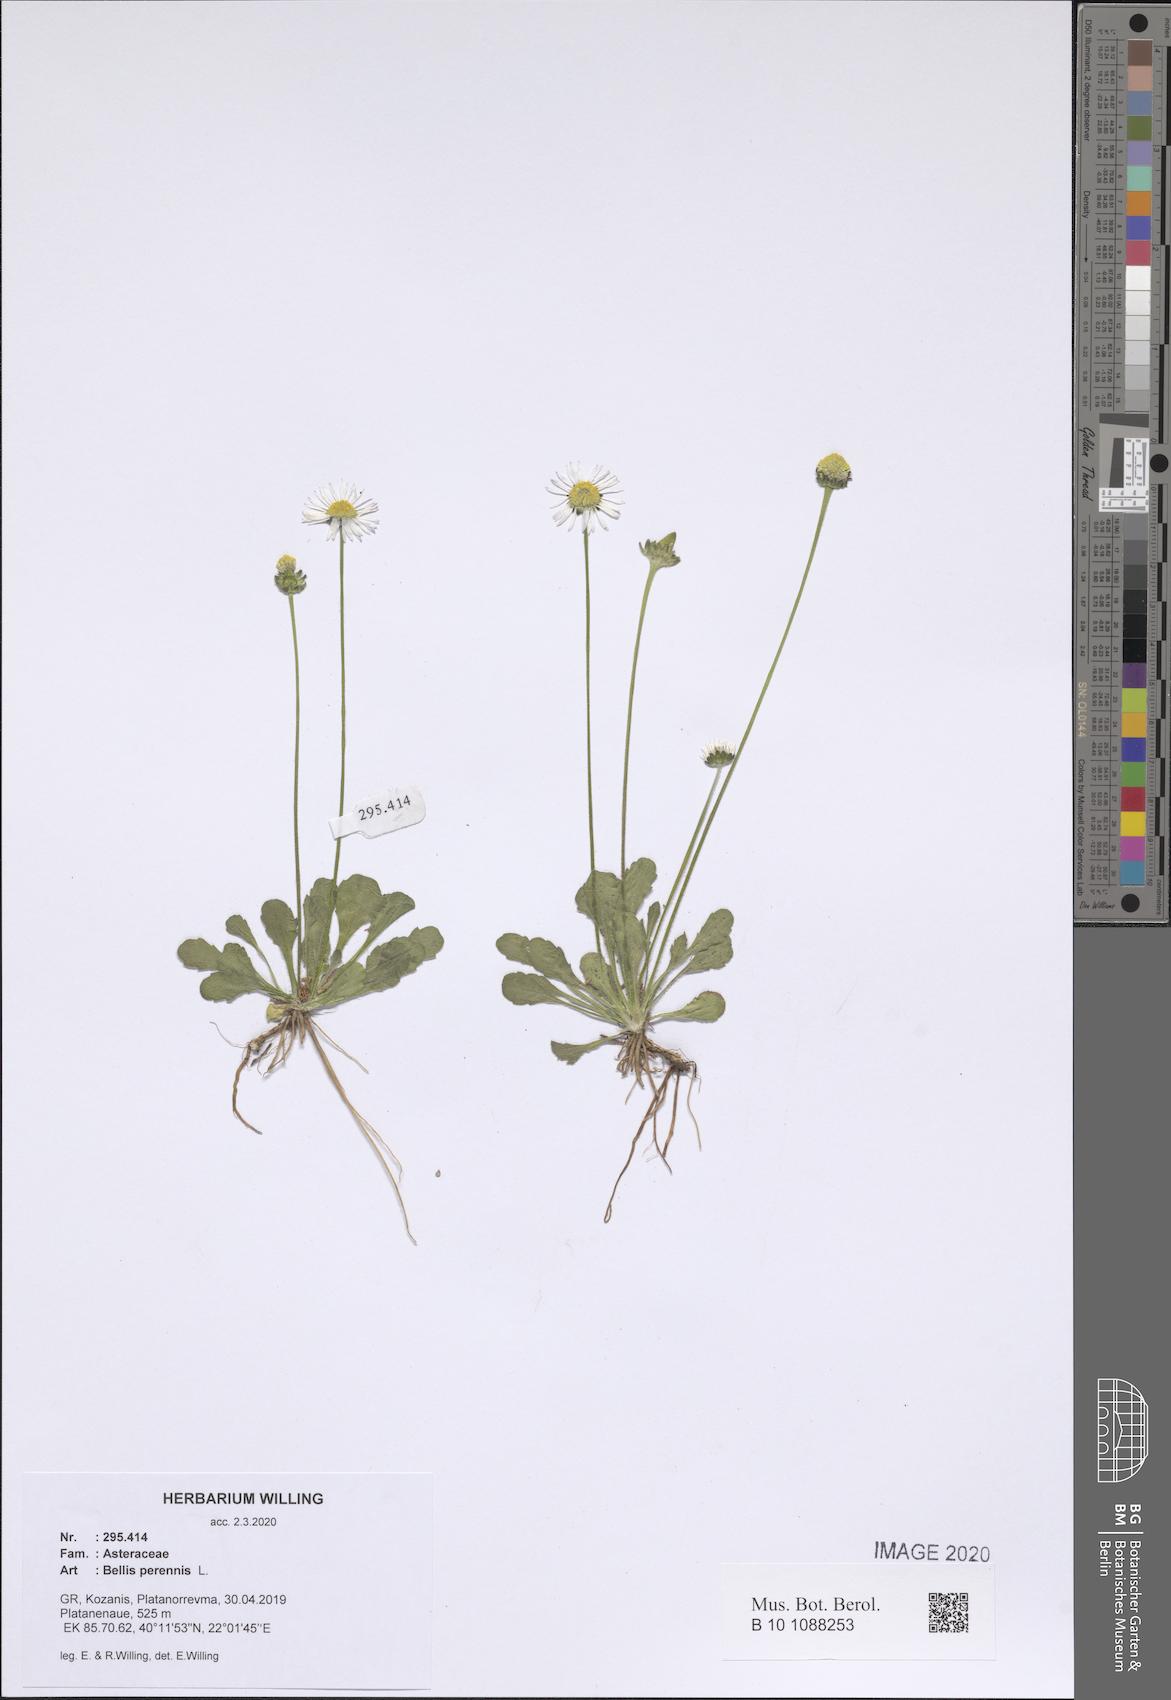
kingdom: Plantae
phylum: Tracheophyta
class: Magnoliopsida
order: Asterales
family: Asteraceae
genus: Bellis
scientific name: Bellis perennis
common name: Lawndaisy
